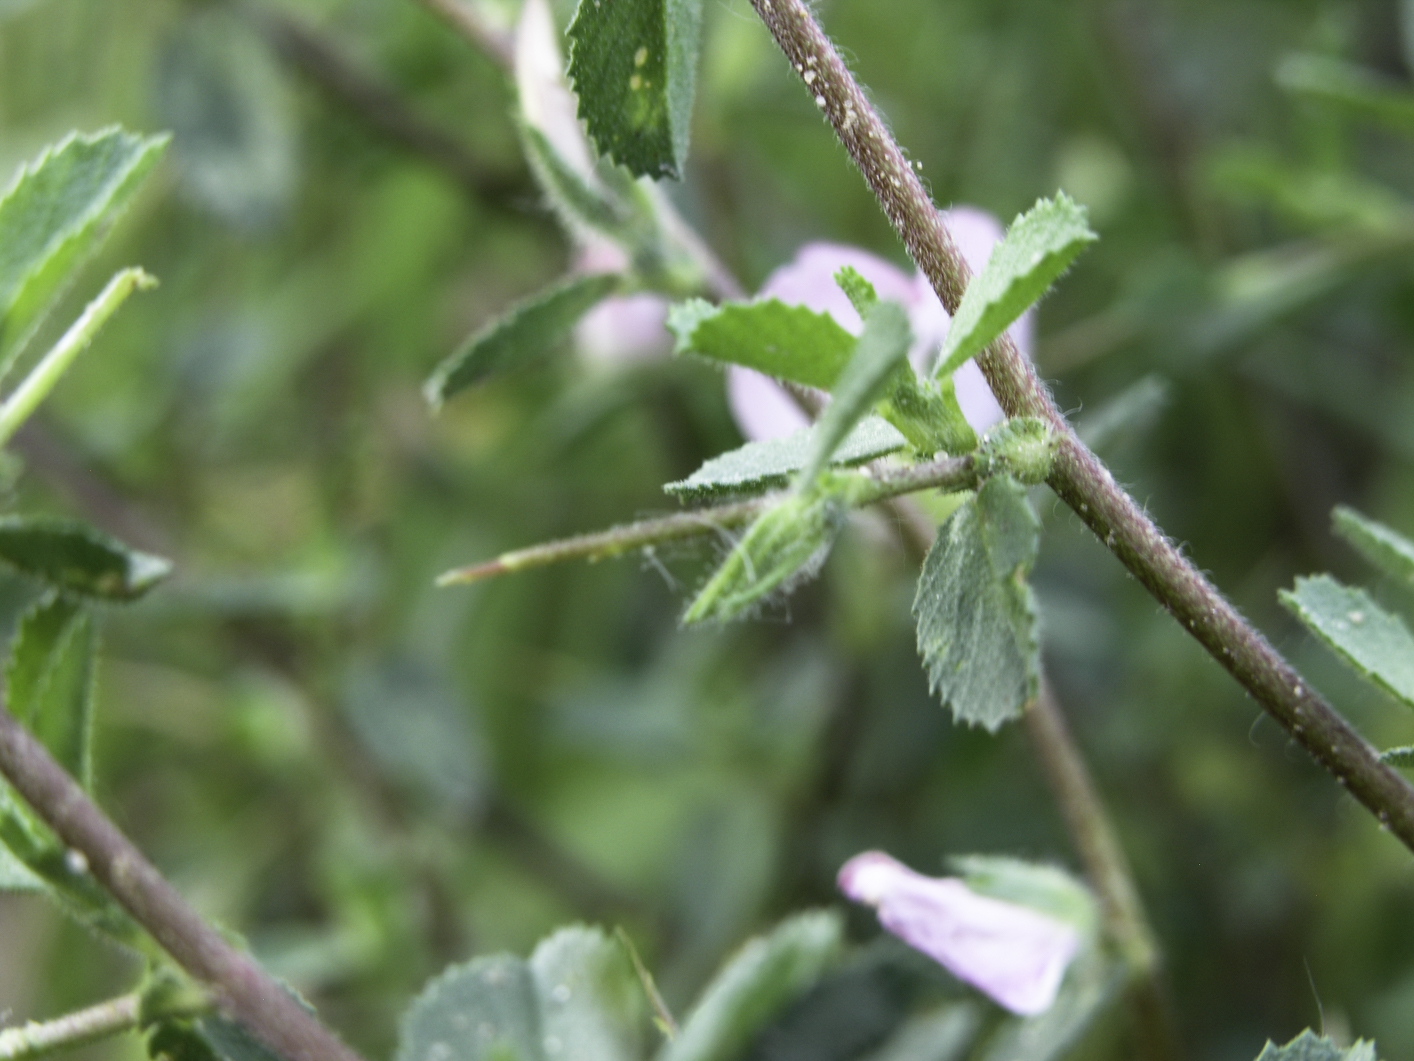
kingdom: Plantae
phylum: Tracheophyta
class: Magnoliopsida
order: Fabales
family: Fabaceae
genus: Ononis
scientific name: Ononis spinosa
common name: Spiny restharrow
